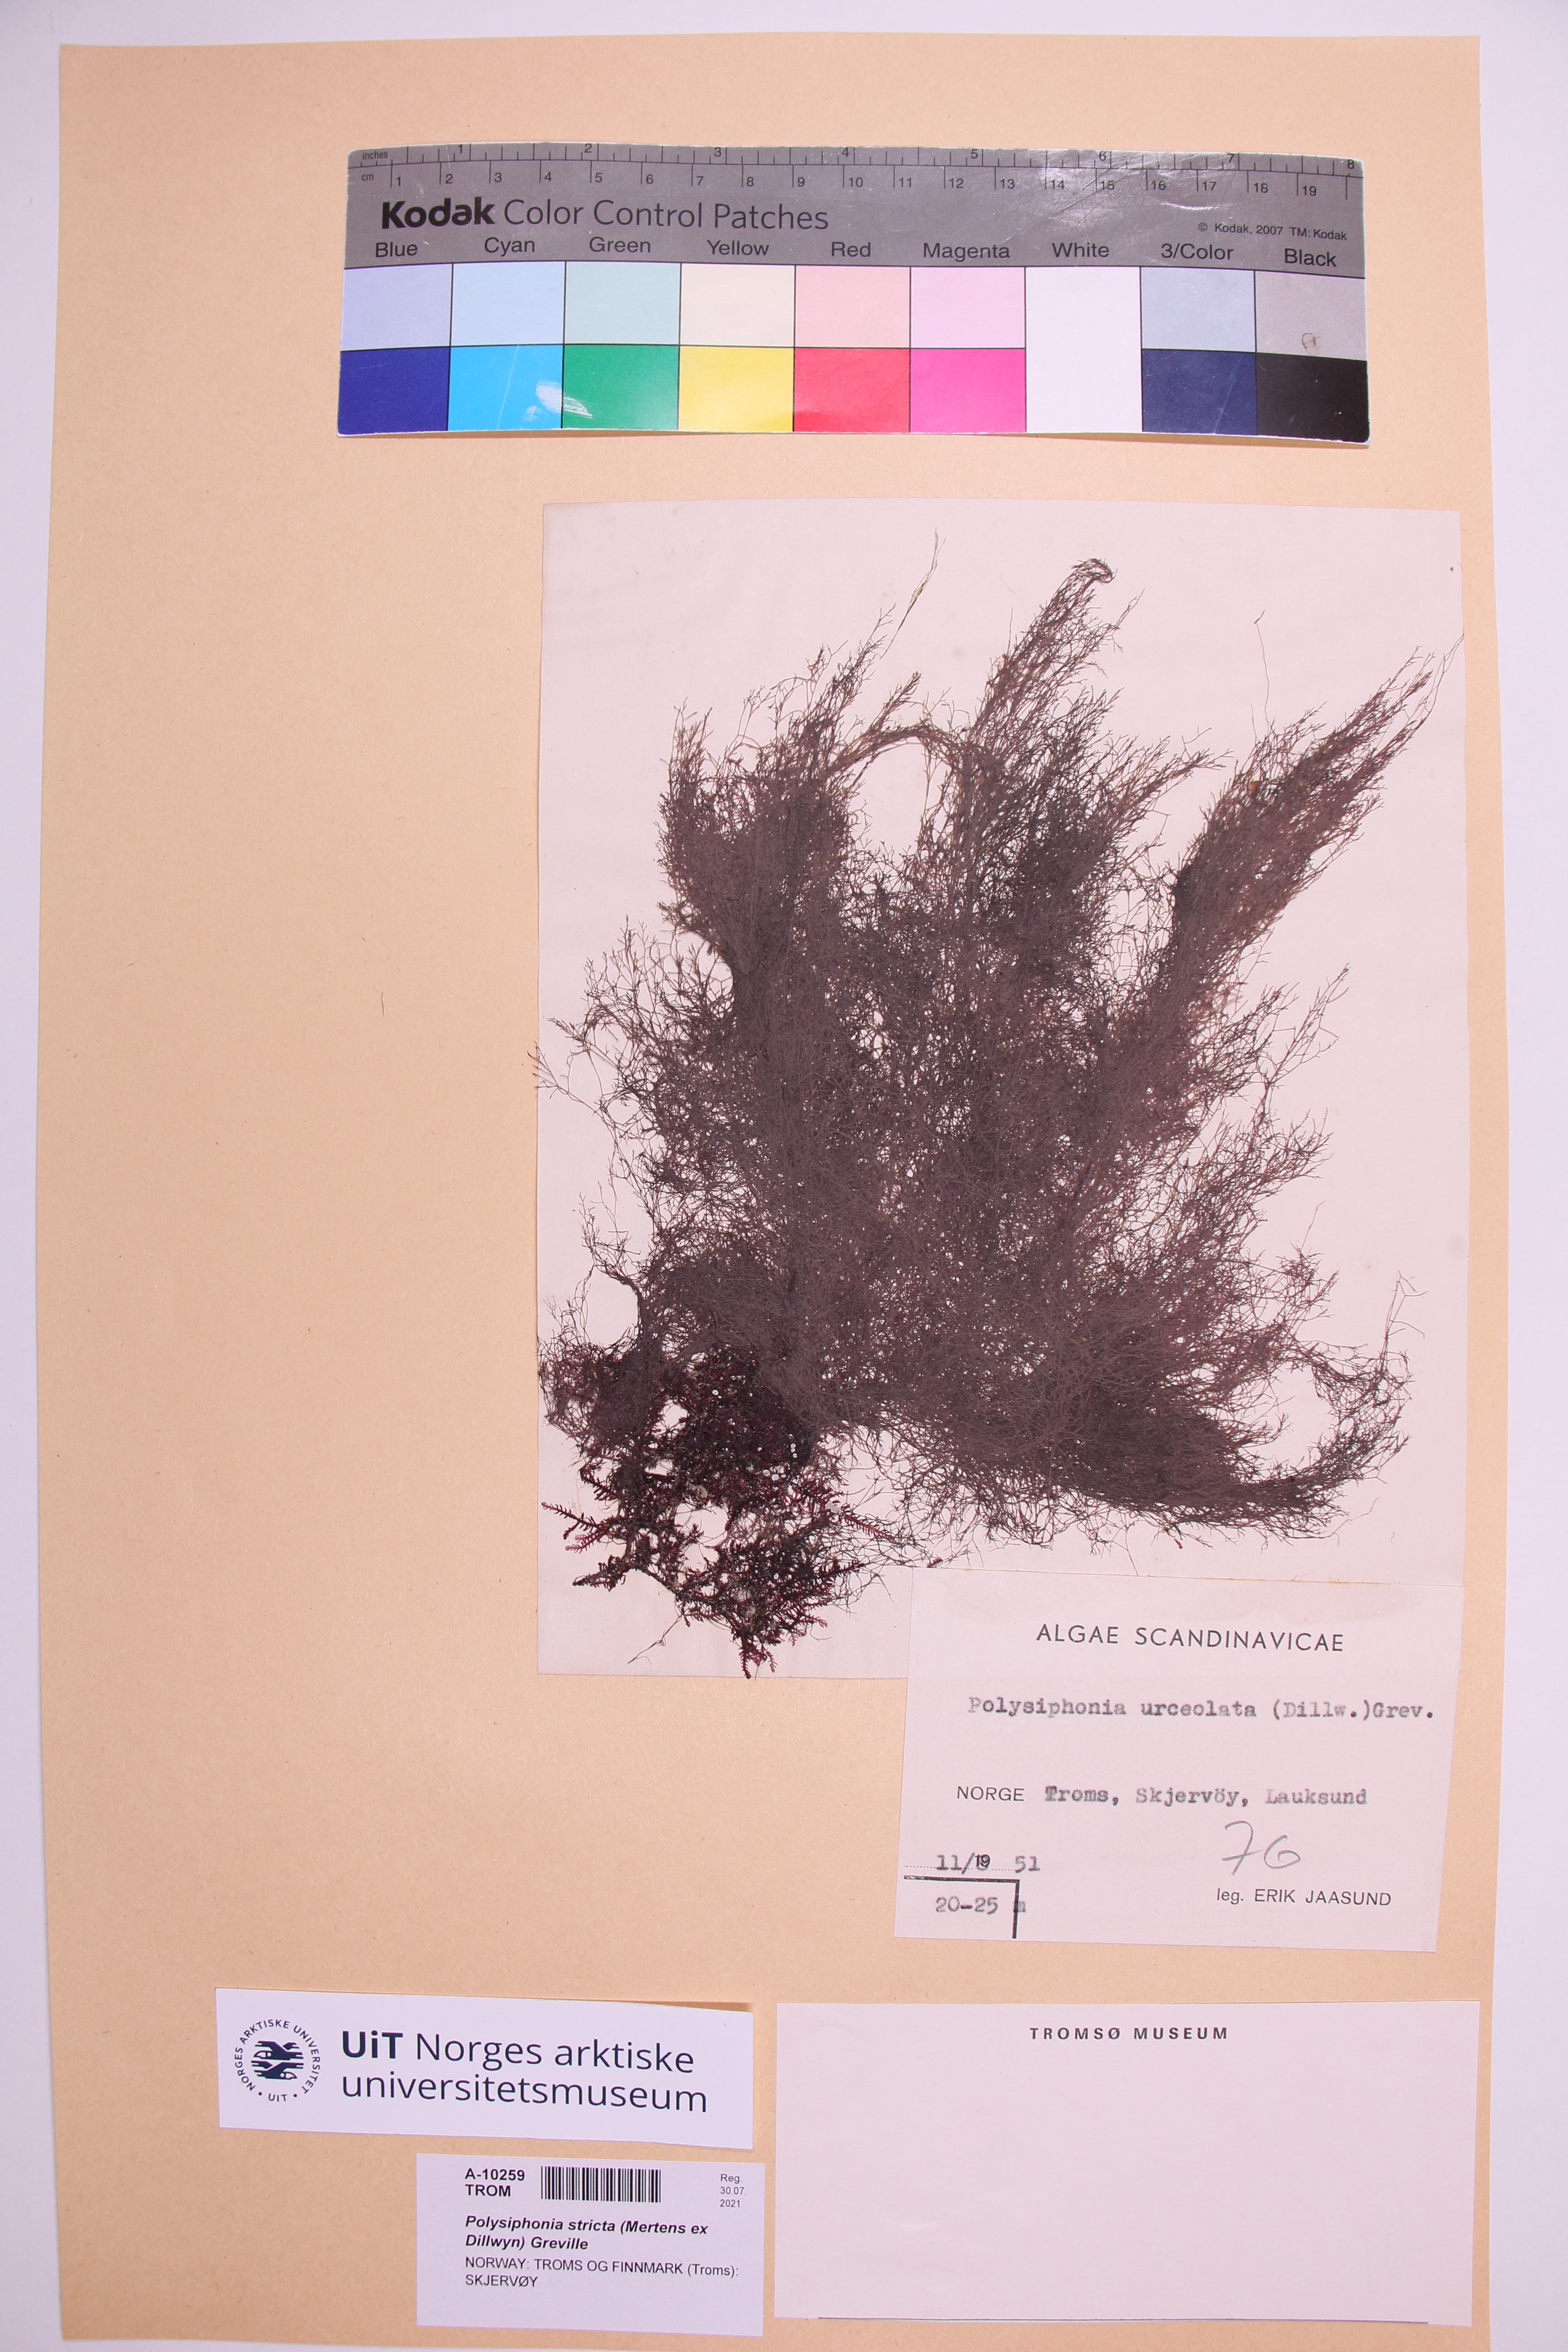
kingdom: Plantae
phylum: Rhodophyta
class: Florideophyceae
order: Ceramiales
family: Rhodomelaceae
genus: Polysiphonia
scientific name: Polysiphonia stricta
